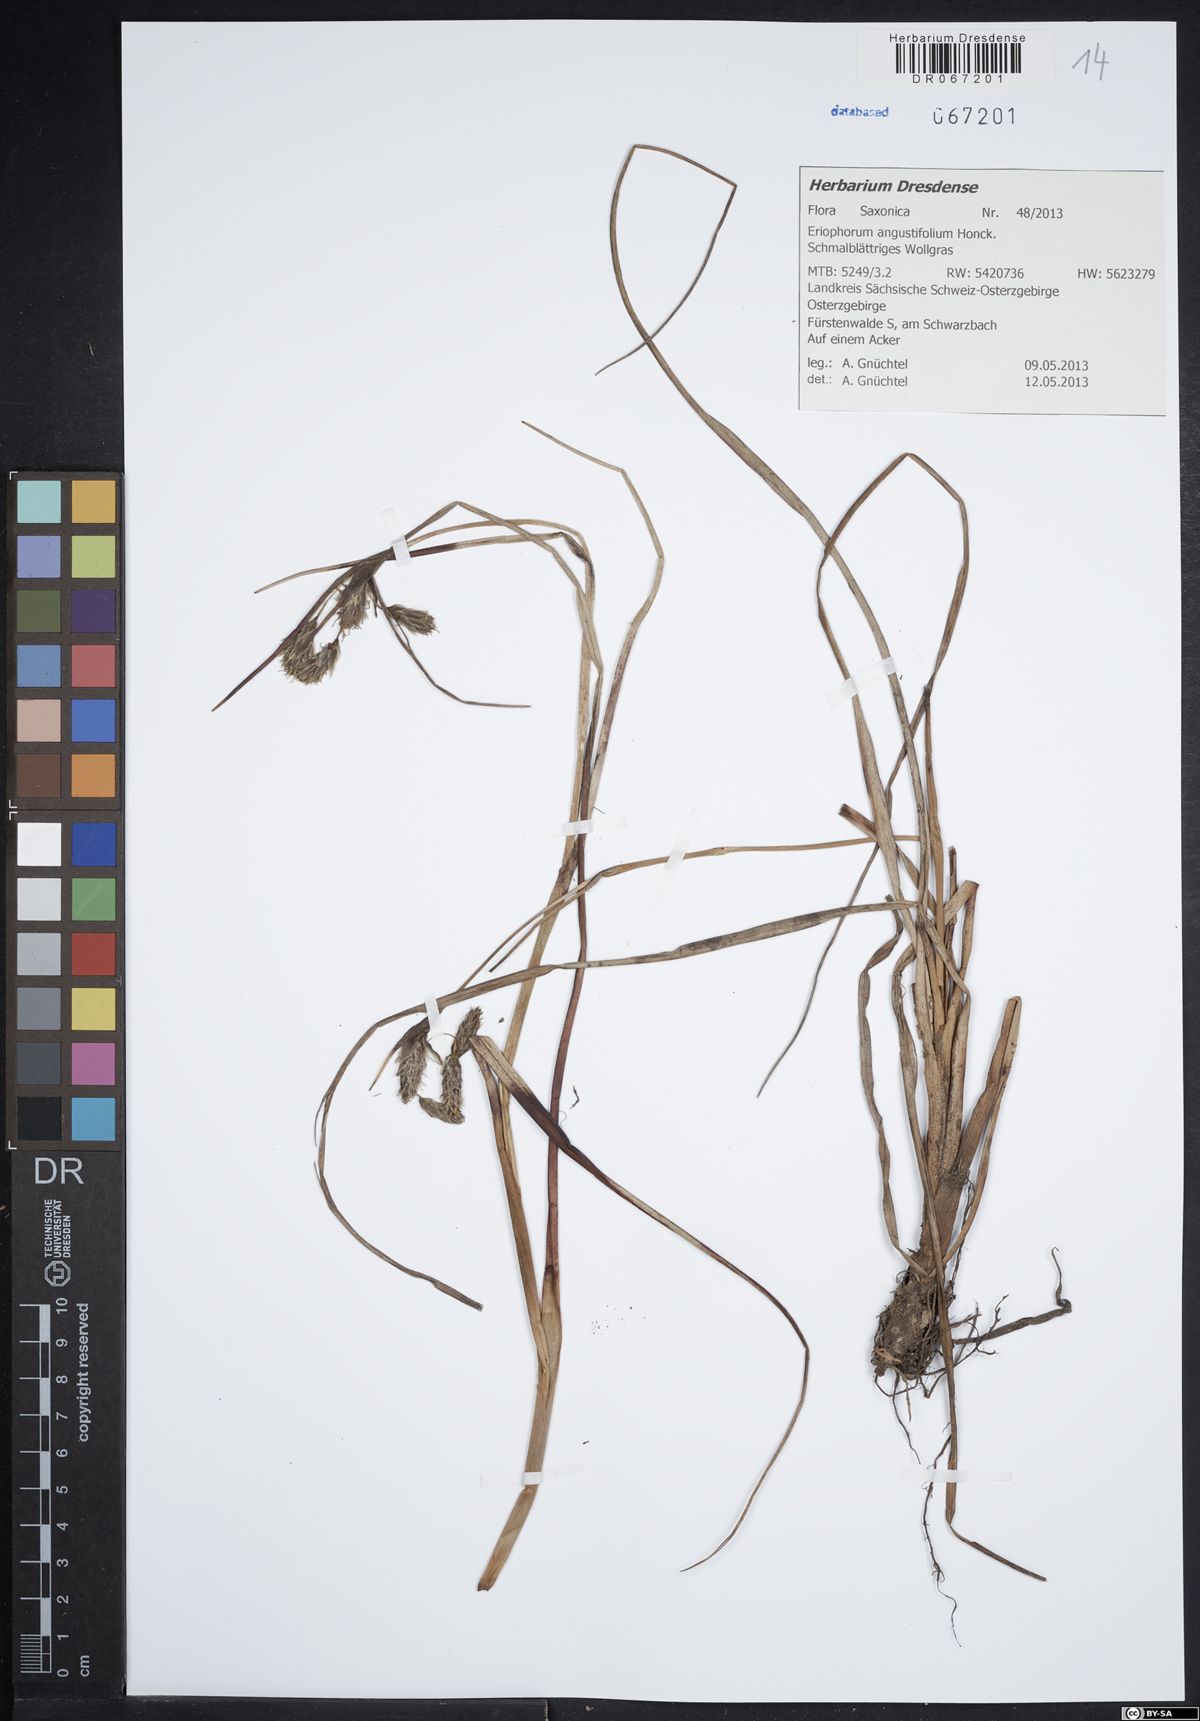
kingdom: Plantae
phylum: Tracheophyta
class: Liliopsida
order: Poales
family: Cyperaceae
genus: Eriophorum
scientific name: Eriophorum angustifolium
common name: Common cottongrass
